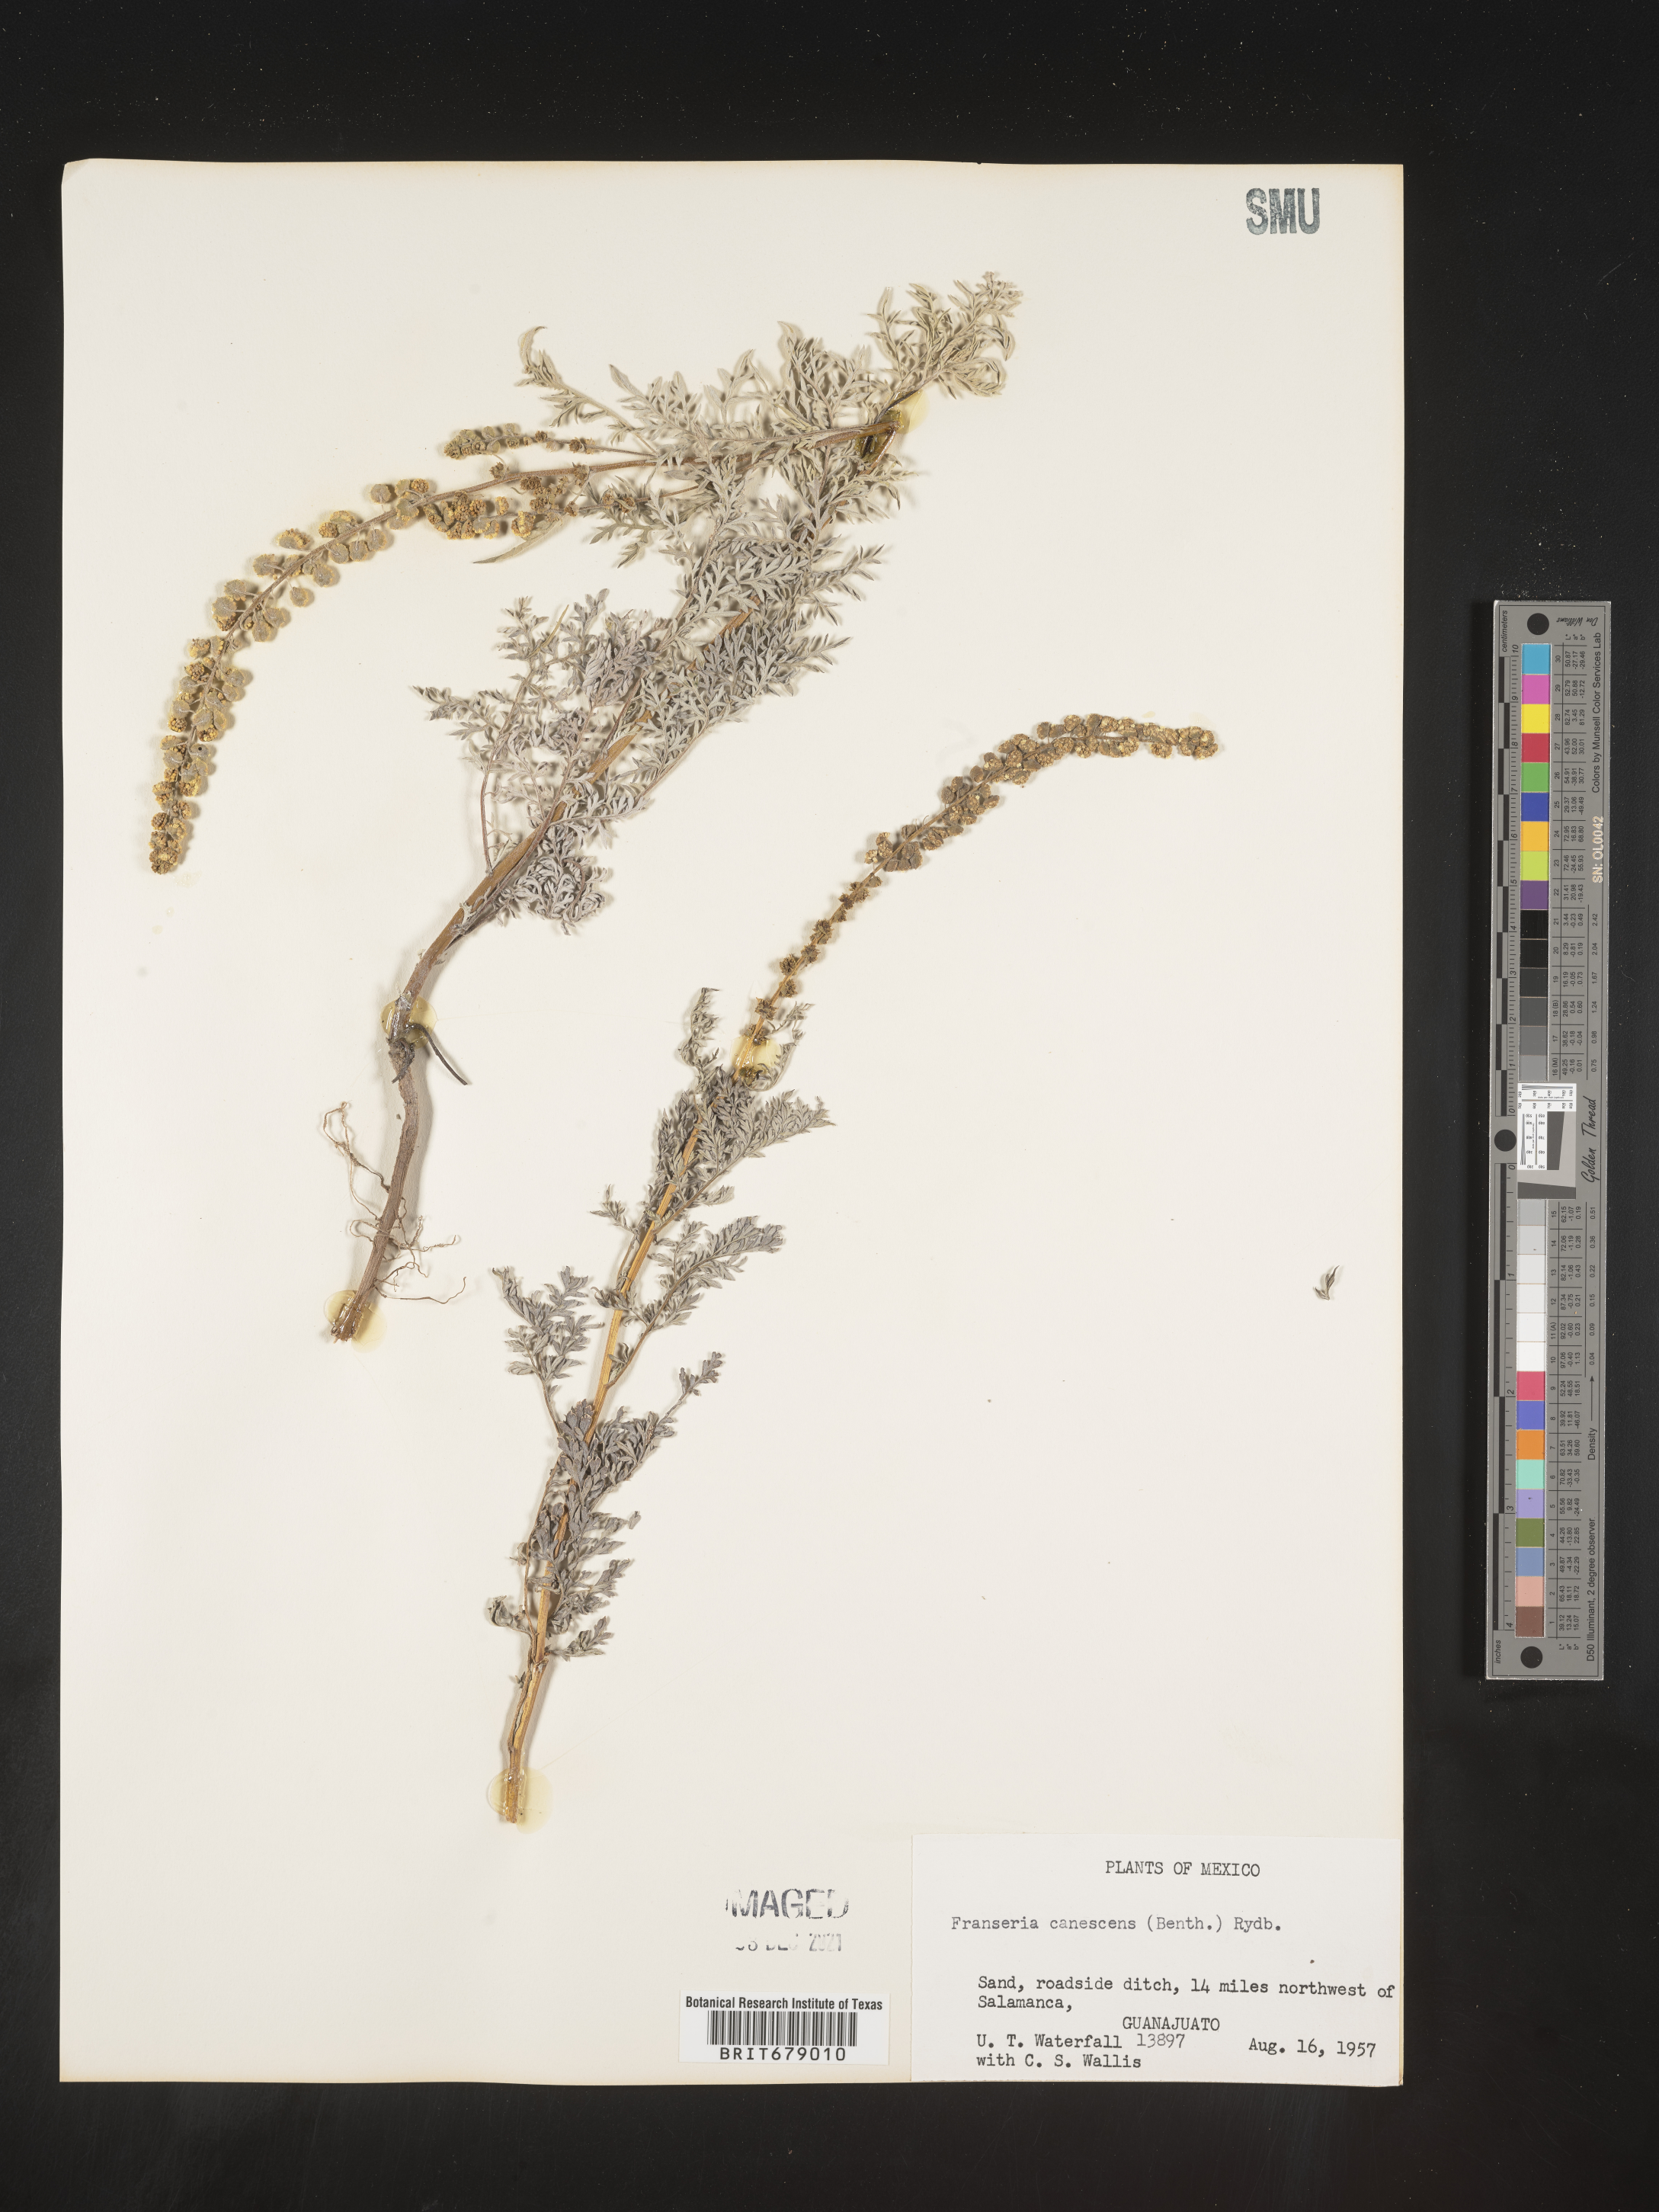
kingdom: Plantae
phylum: Tracheophyta
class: Magnoliopsida
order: Asterales
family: Asteraceae
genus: Ambrosia
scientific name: Ambrosia
